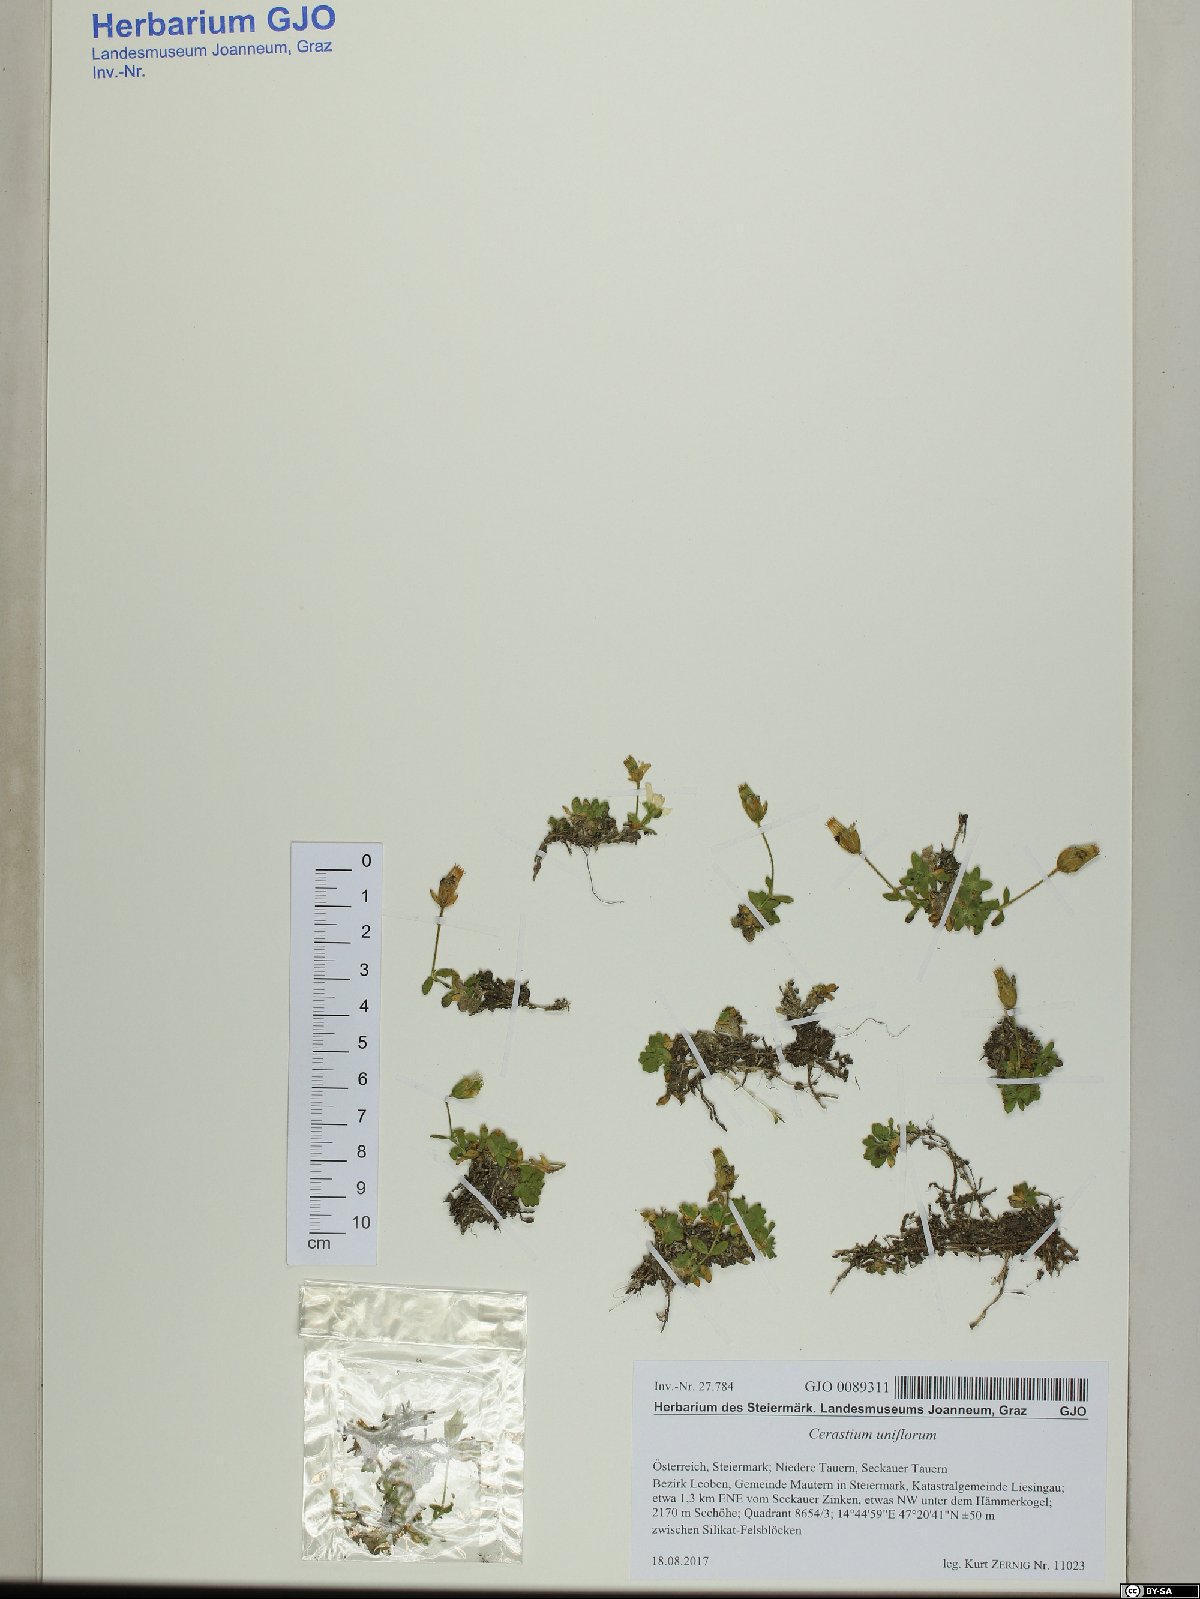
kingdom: Plantae
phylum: Tracheophyta
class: Magnoliopsida
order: Caryophyllales
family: Caryophyllaceae
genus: Cerastium
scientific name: Cerastium uniflorum
